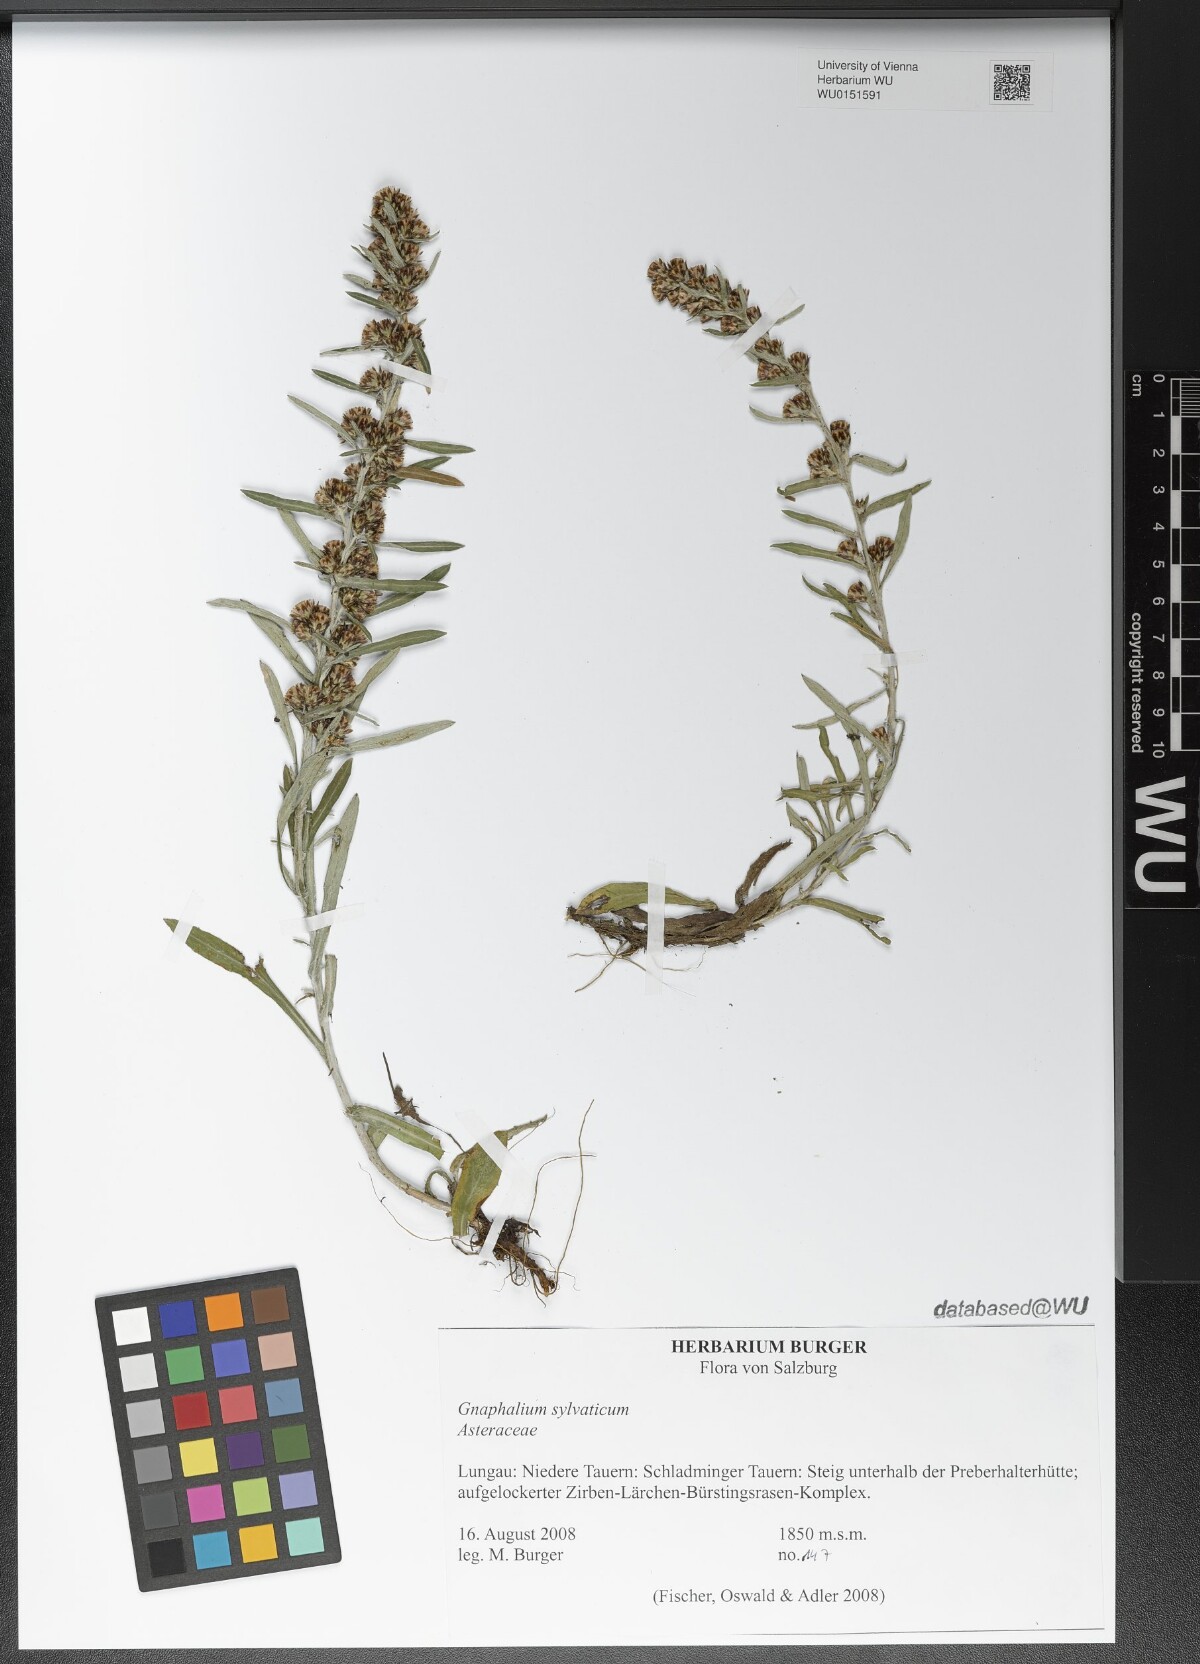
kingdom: Plantae
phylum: Tracheophyta
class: Magnoliopsida
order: Asterales
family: Asteraceae
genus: Omalotheca
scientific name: Omalotheca sylvatica
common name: Heath cudweed
